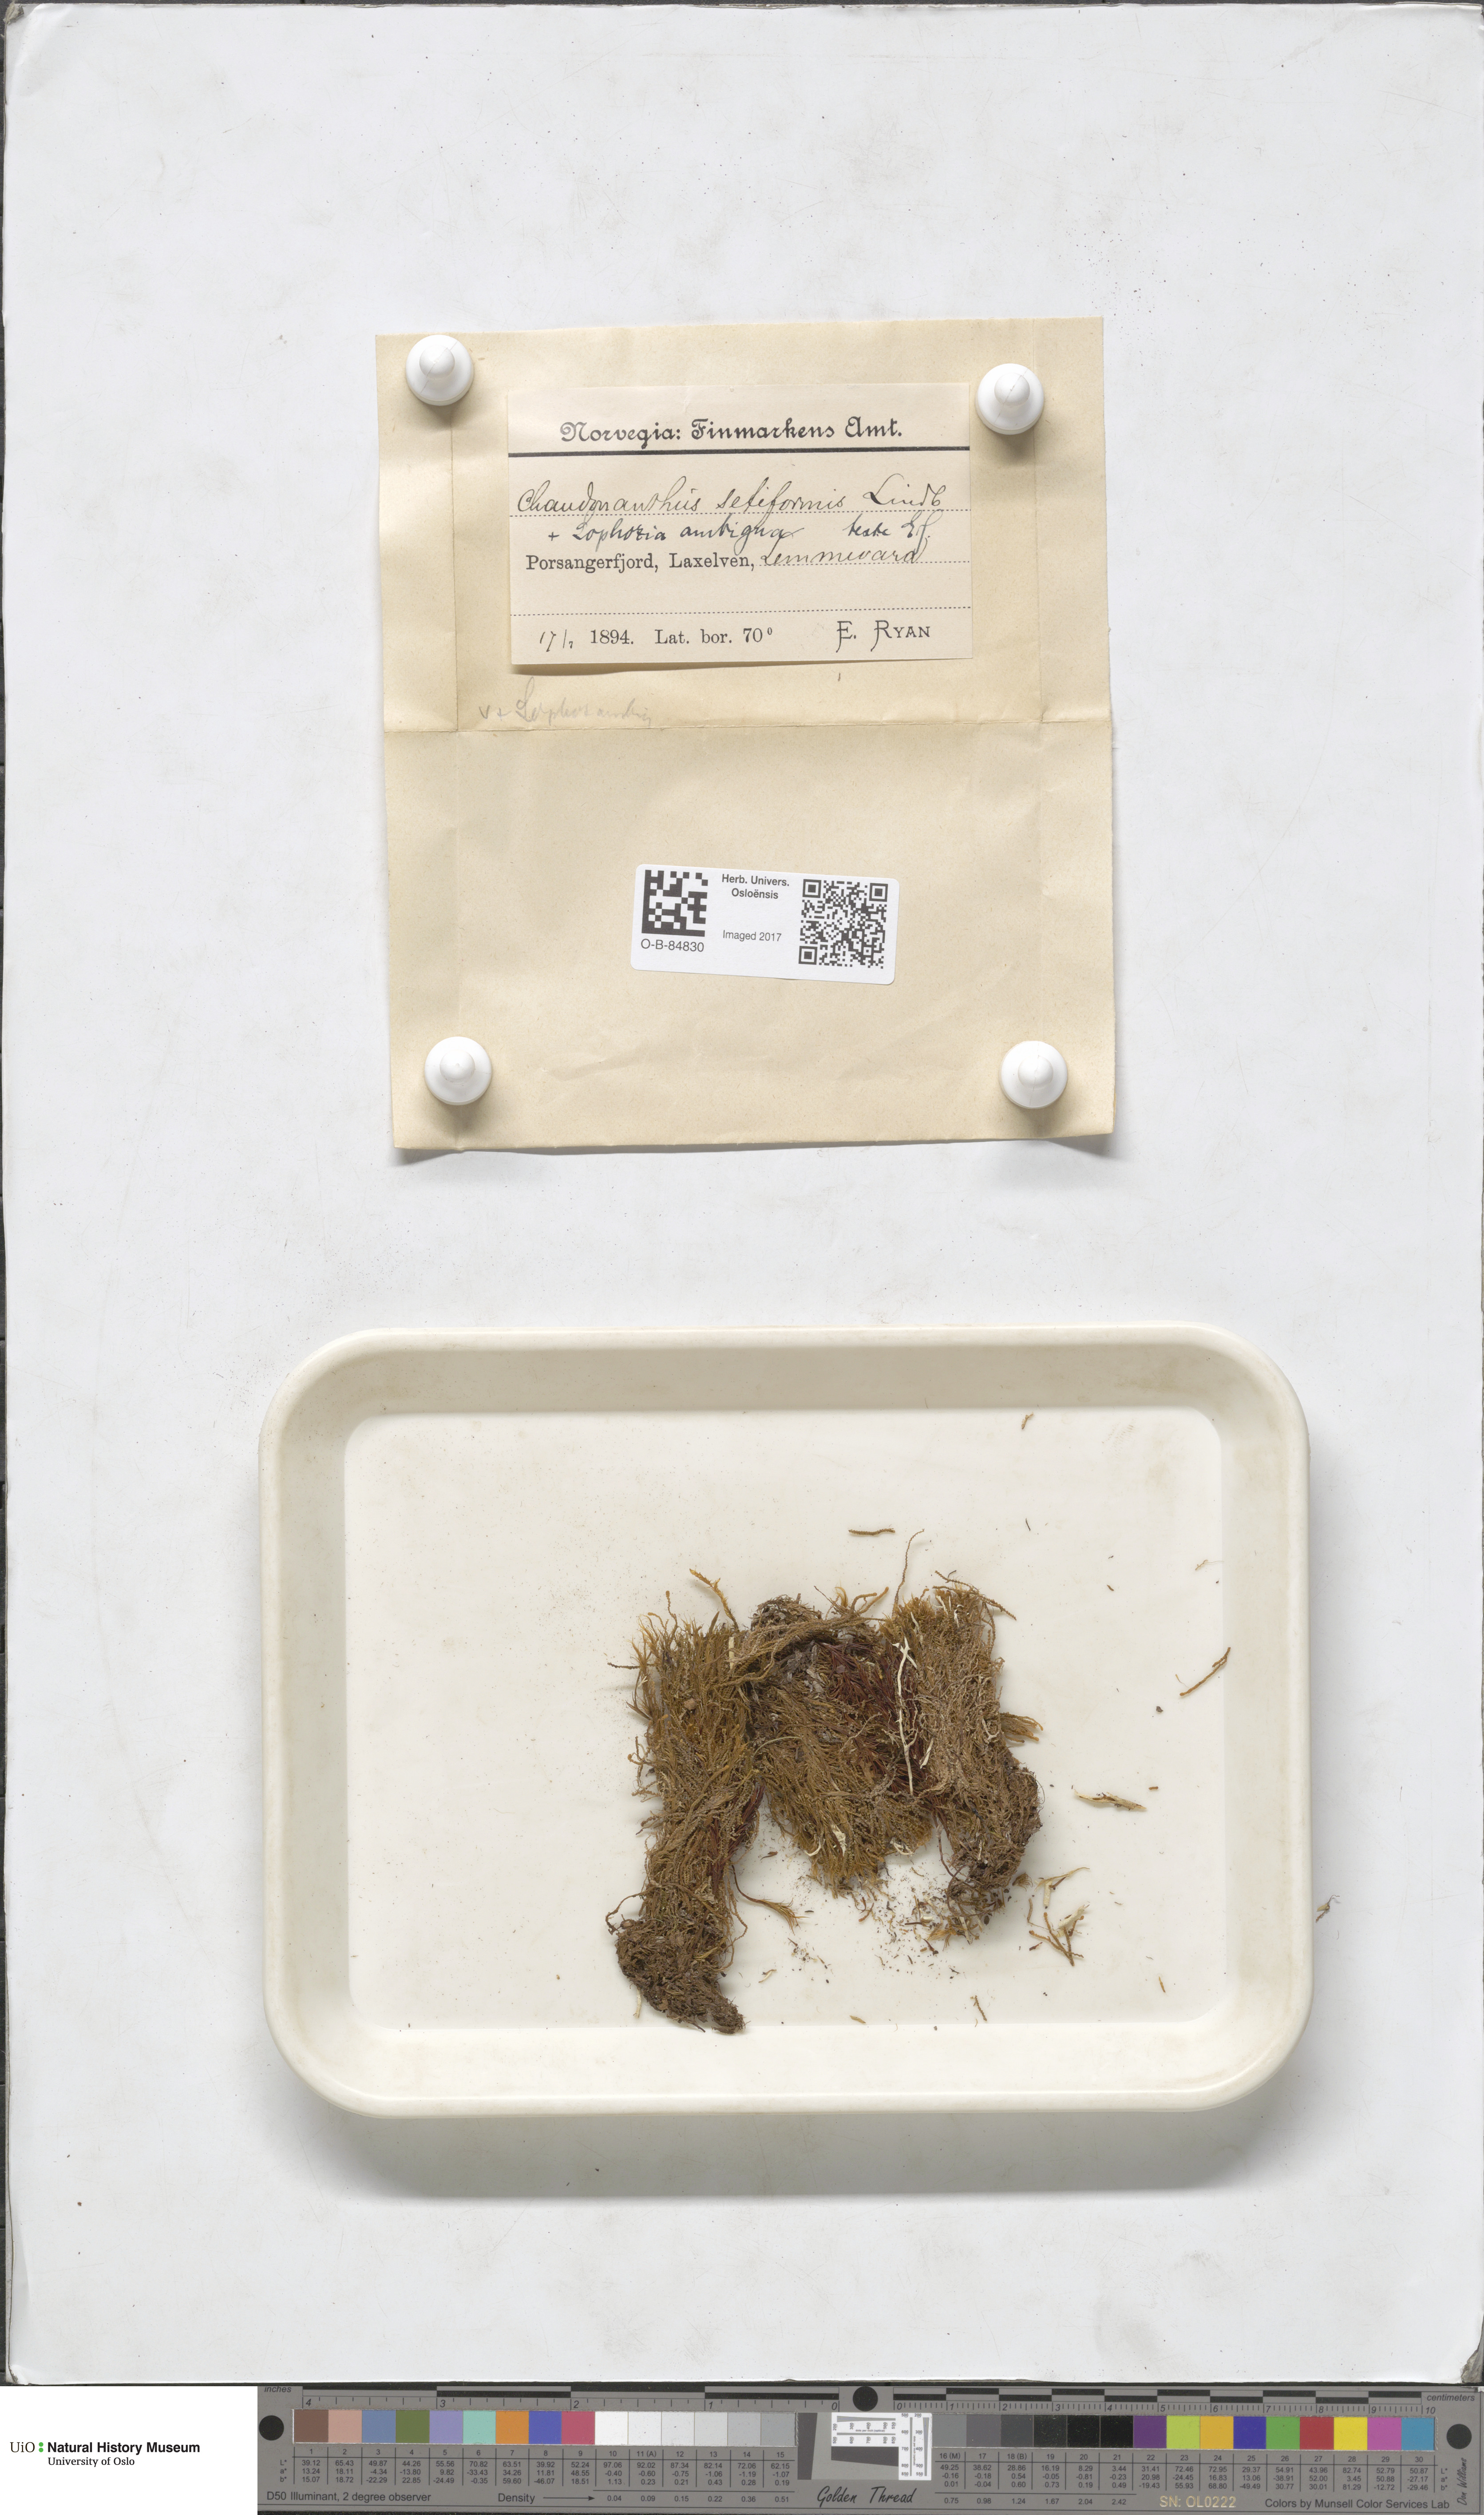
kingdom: Plantae
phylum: Marchantiophyta
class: Jungermanniopsida
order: Jungermanniales
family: Anastrophyllaceae
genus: Tetralophozia
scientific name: Tetralophozia setiformis
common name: Monster pawwort
